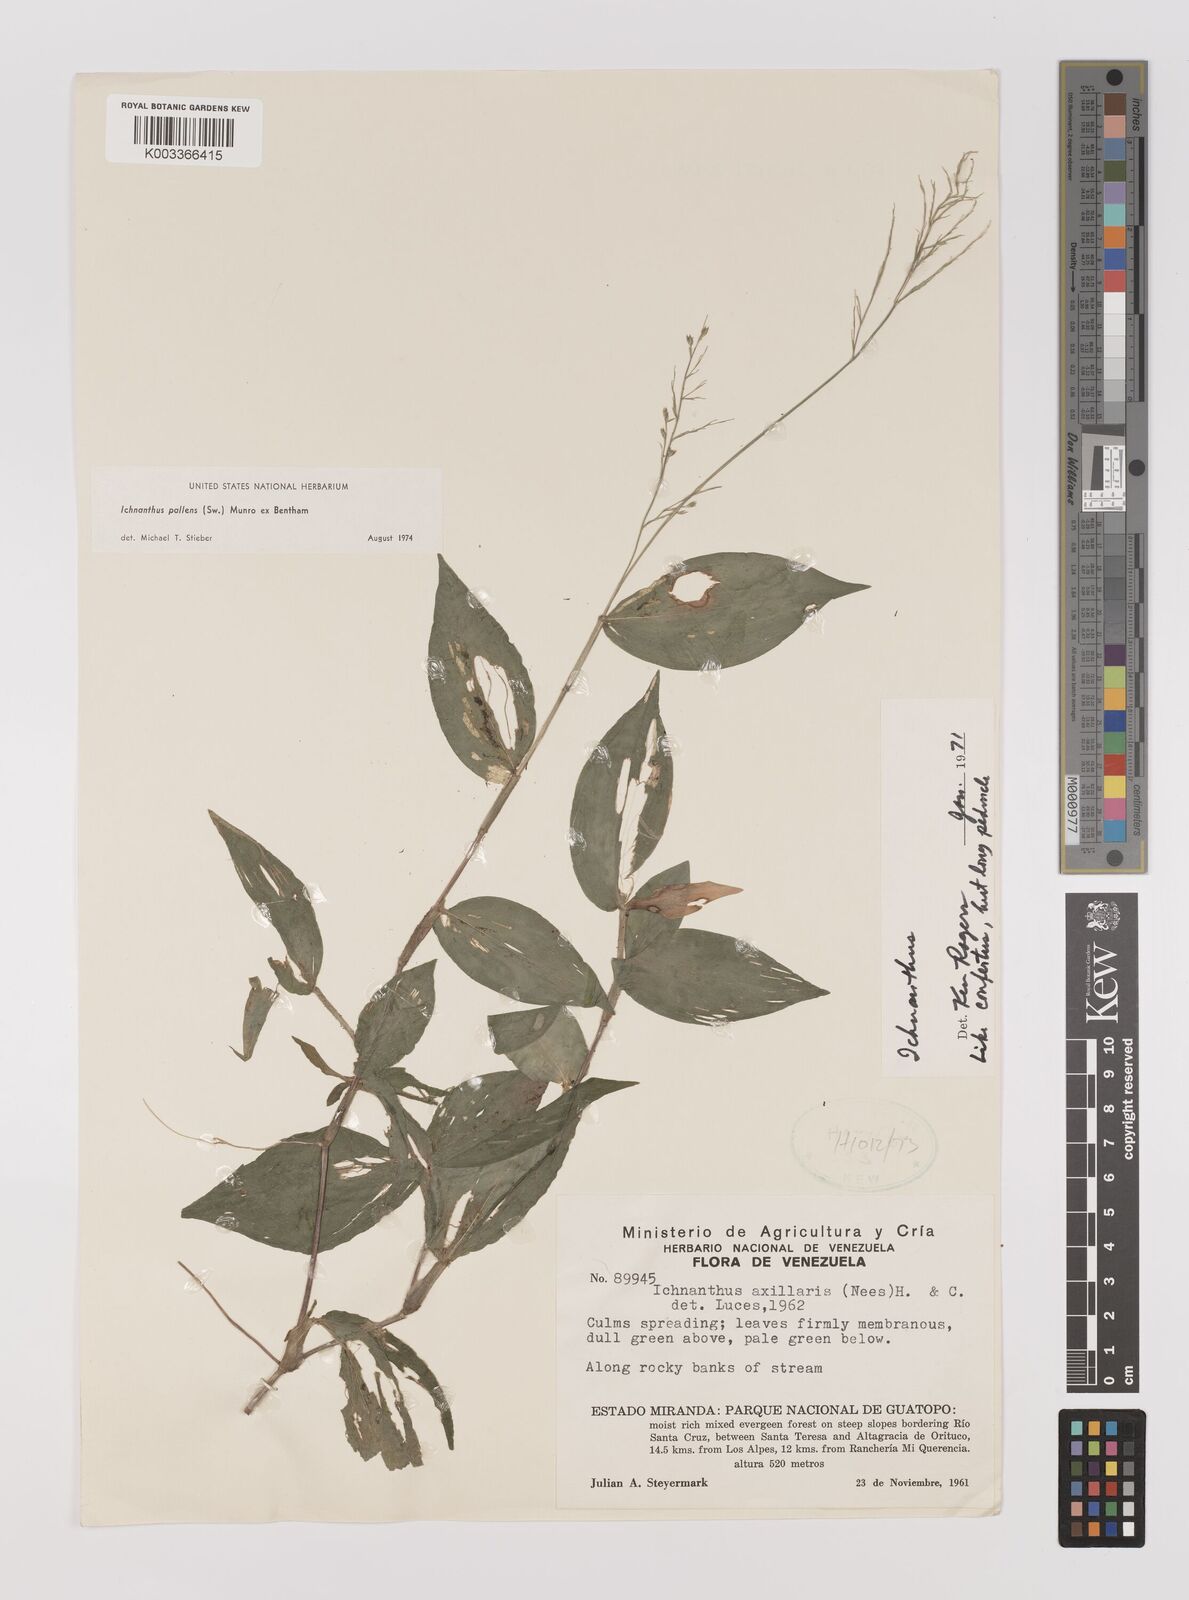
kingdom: Plantae
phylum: Tracheophyta
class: Liliopsida
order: Poales
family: Poaceae
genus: Ichnanthus
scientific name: Ichnanthus pallens
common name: Water grass
